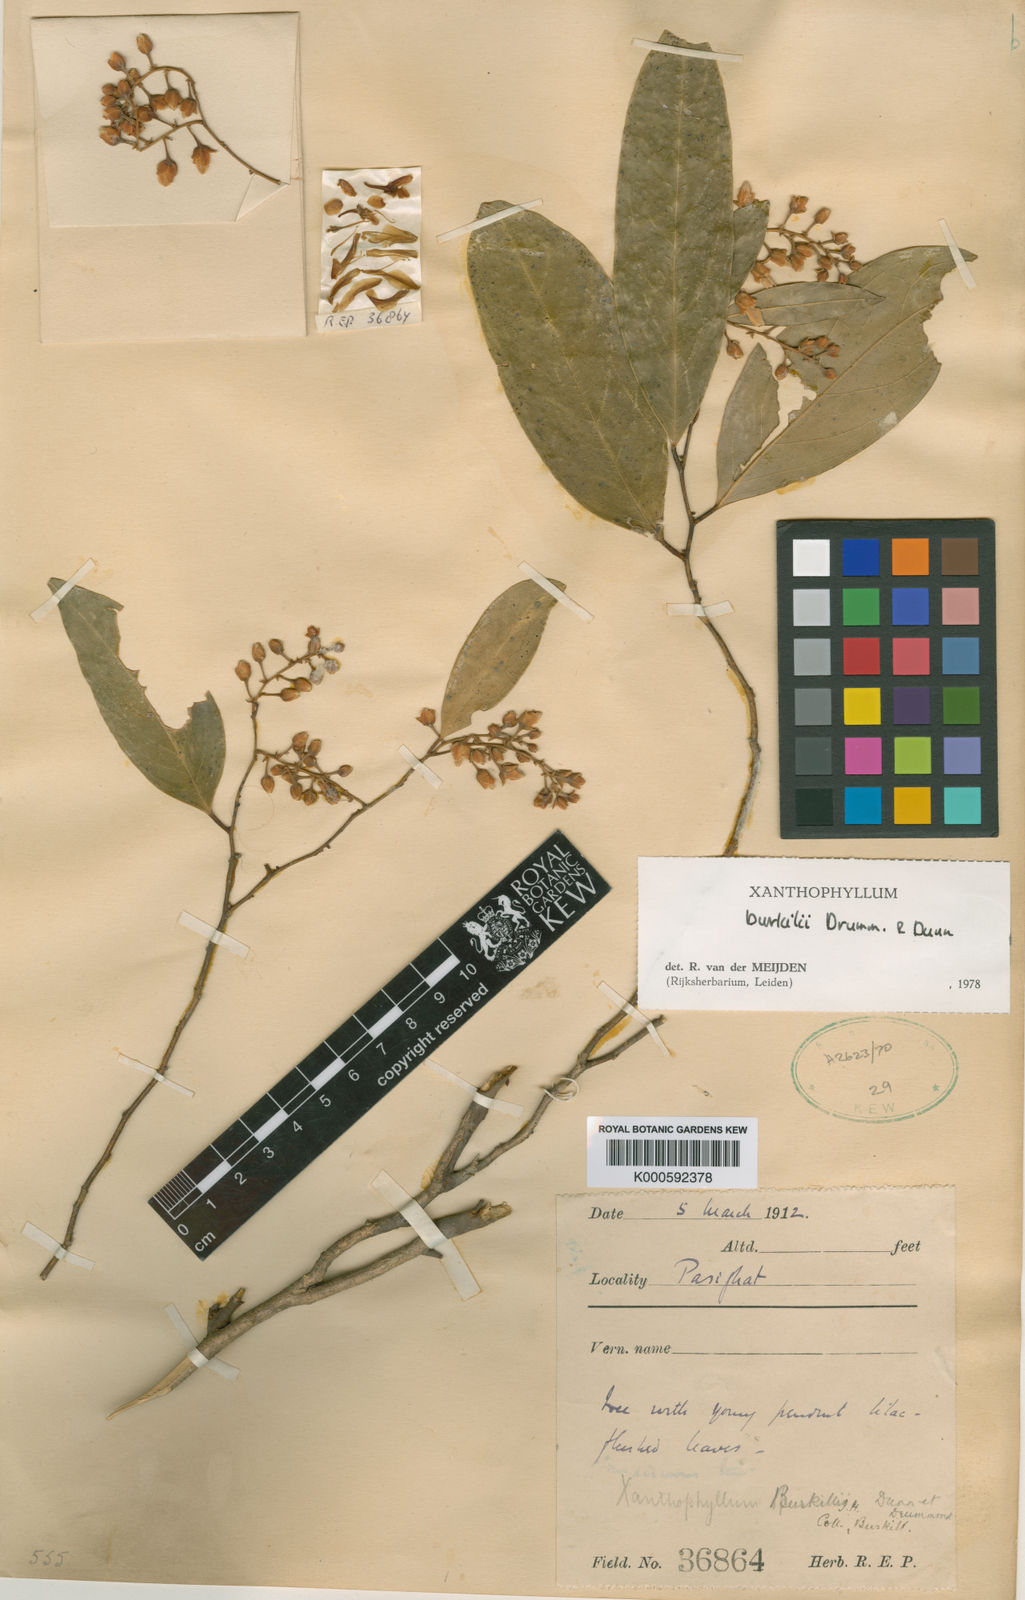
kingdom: Plantae
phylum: Tracheophyta
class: Magnoliopsida
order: Fabales
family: Polygalaceae
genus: Xanthophyllum
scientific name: Xanthophyllum burkillii
